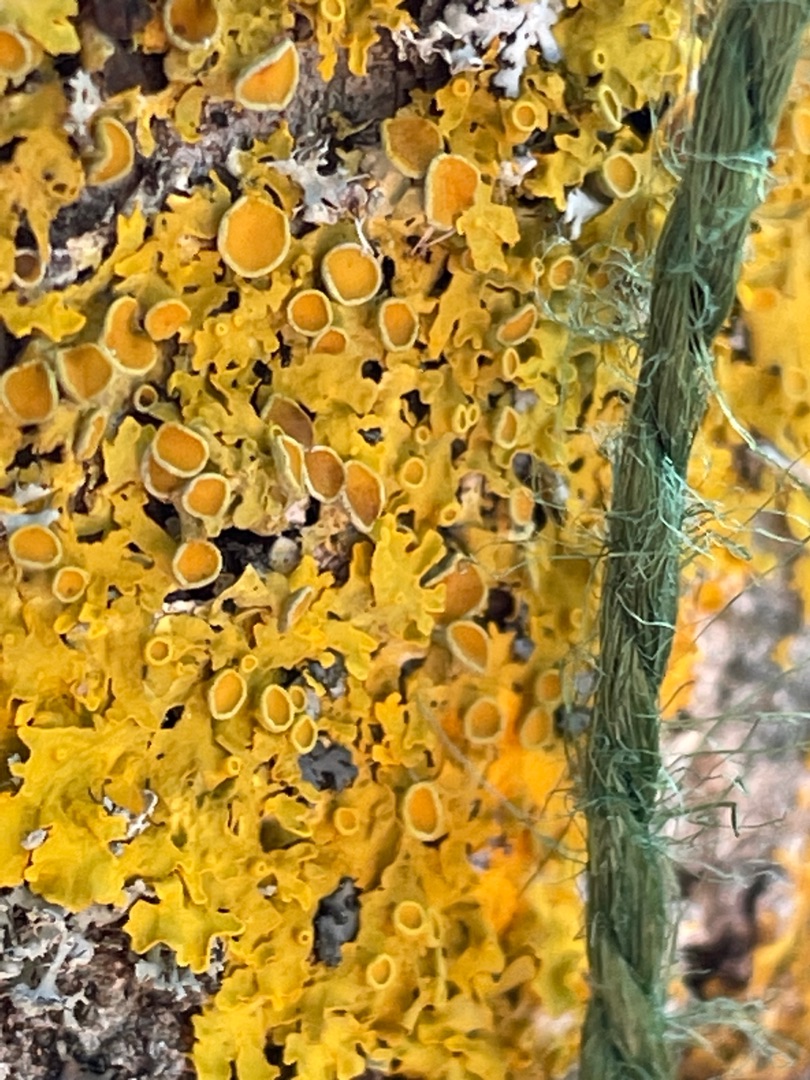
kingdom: Fungi
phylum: Ascomycota
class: Lecanoromycetes
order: Teloschistales
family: Teloschistaceae
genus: Xanthoria
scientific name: Xanthoria parietina
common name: Almindelig væggelav
